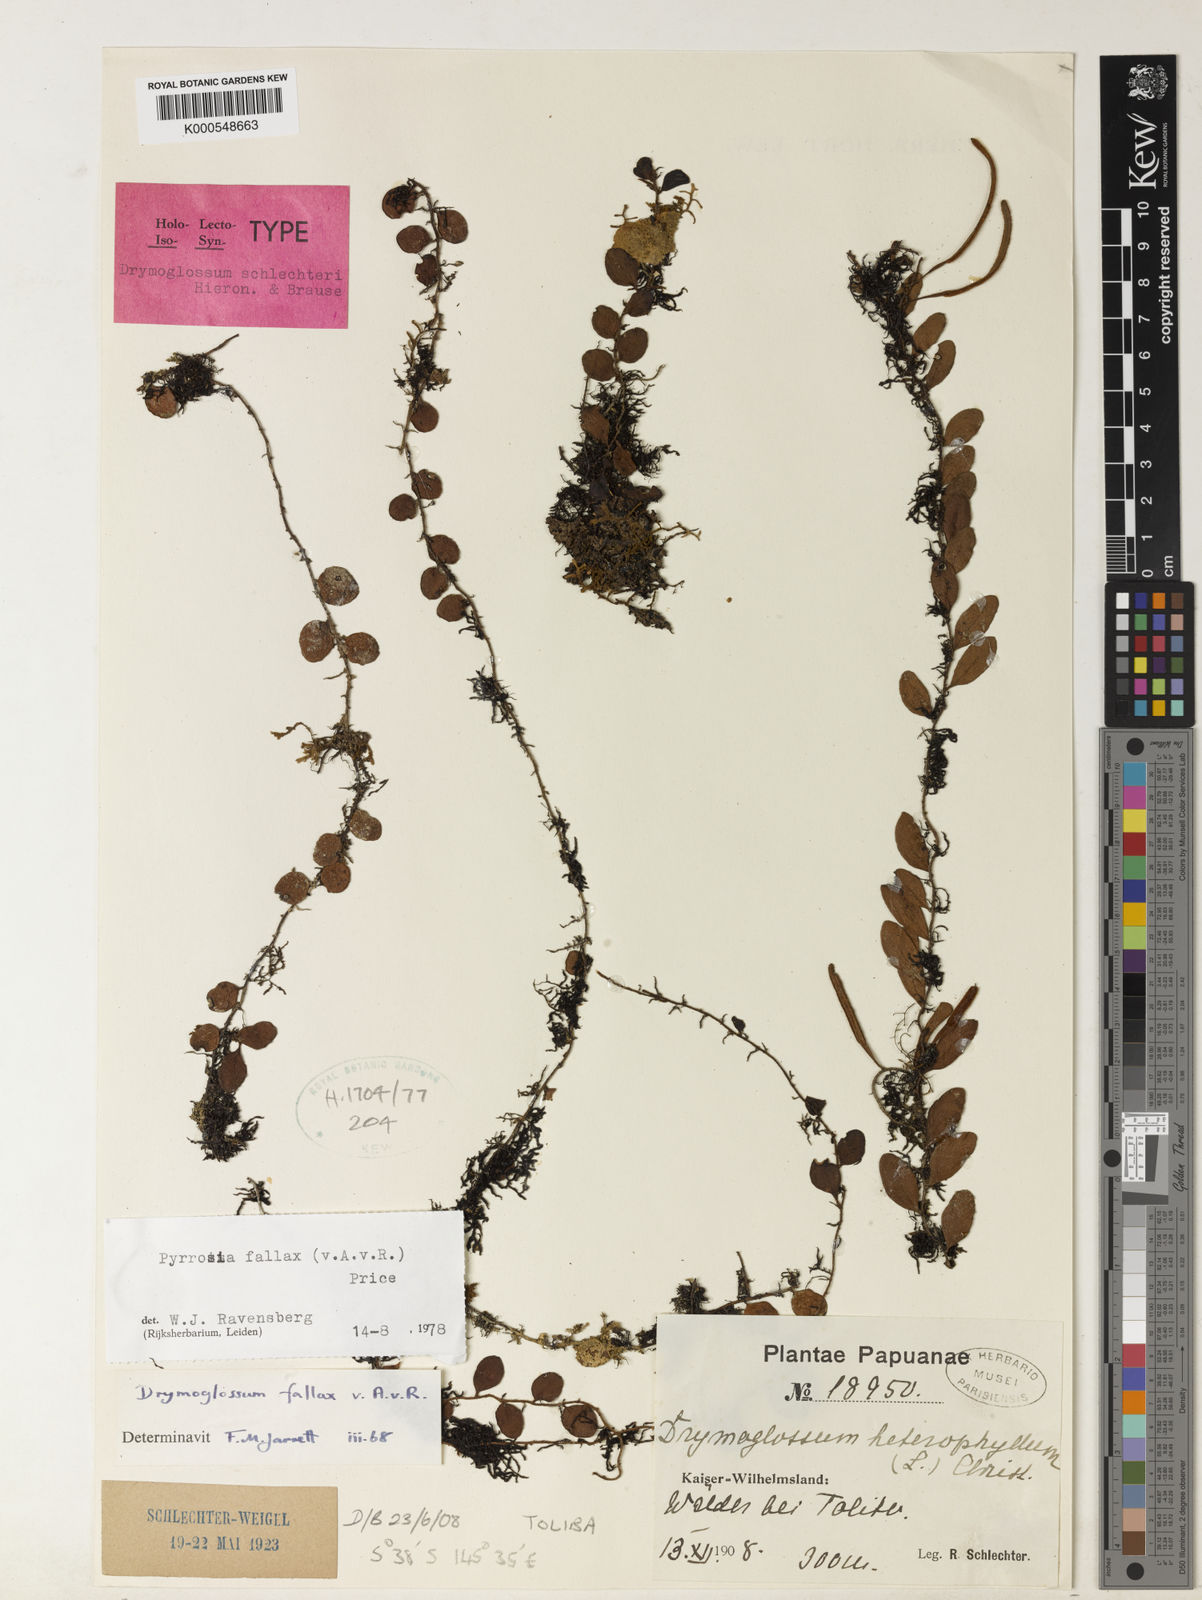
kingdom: Plantae
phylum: Tracheophyta
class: Polypodiopsida
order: Polypodiales
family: Polypodiaceae
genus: Pyrrosia
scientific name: Pyrrosia fallax
